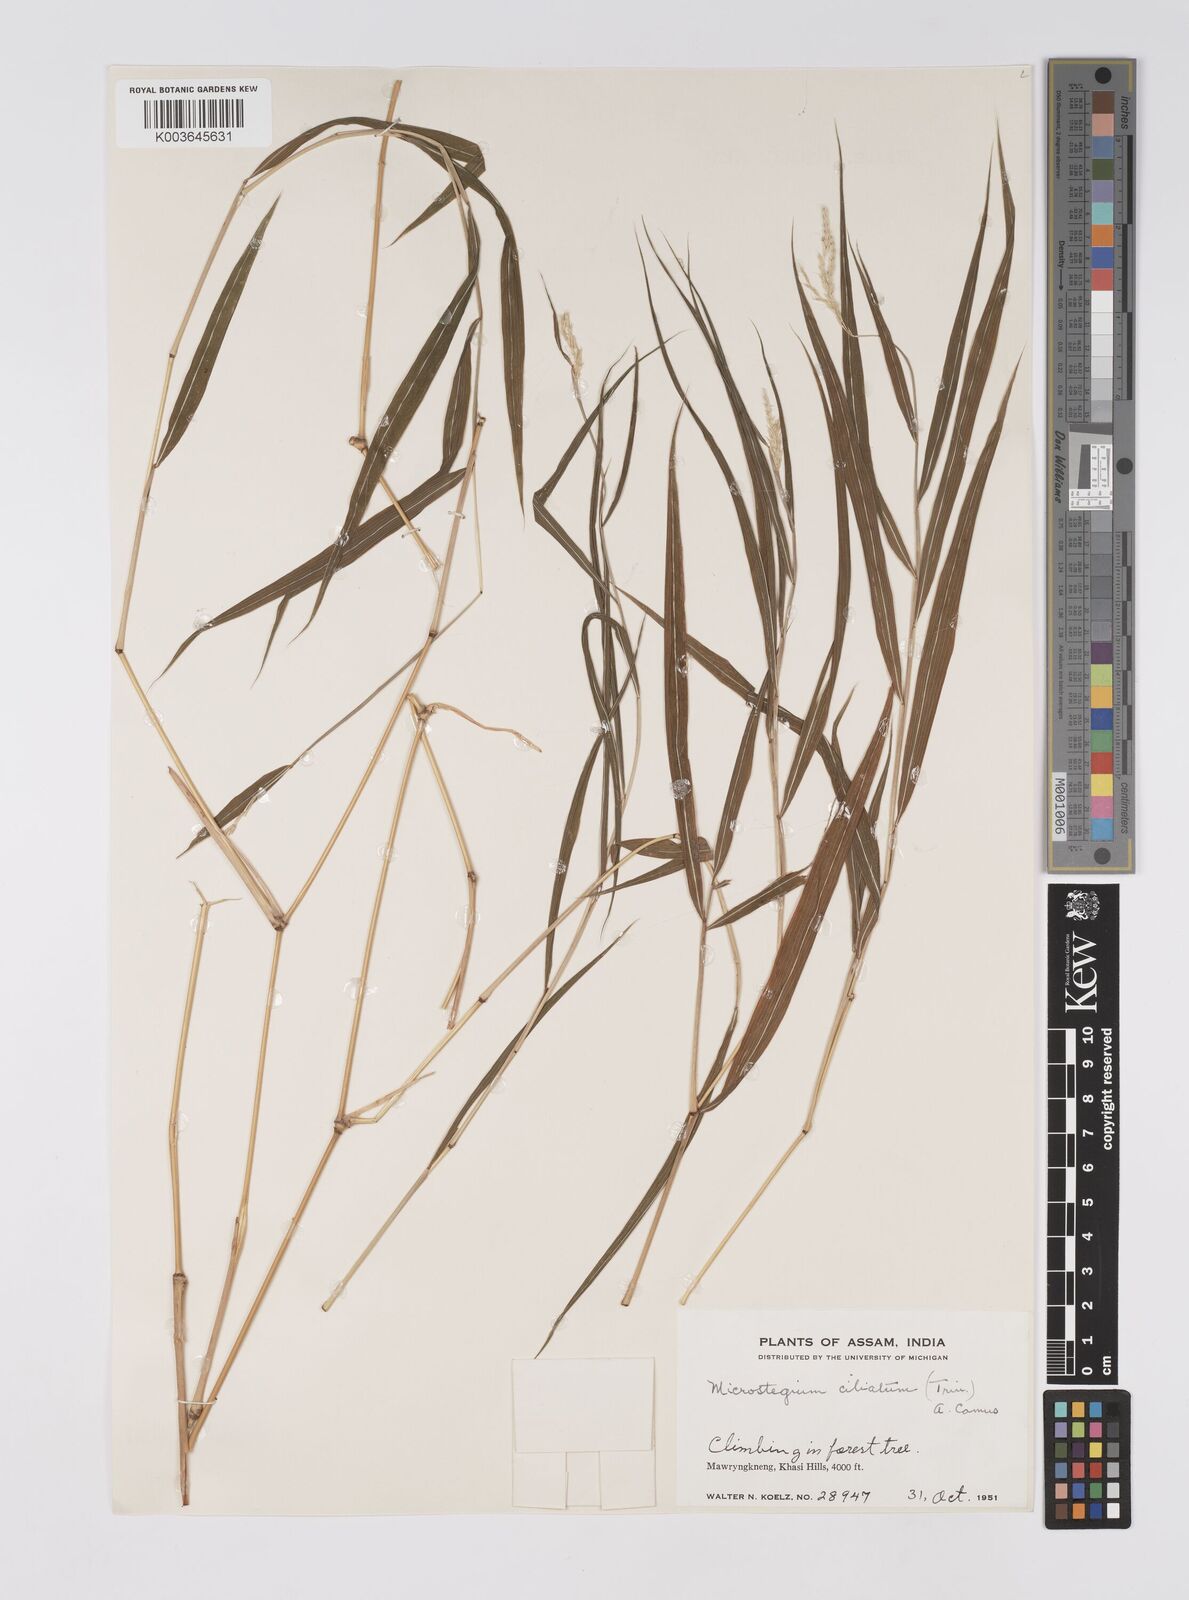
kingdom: Plantae
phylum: Tracheophyta
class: Liliopsida
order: Poales
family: Poaceae
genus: Microstegium
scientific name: Microstegium fasciculatum
